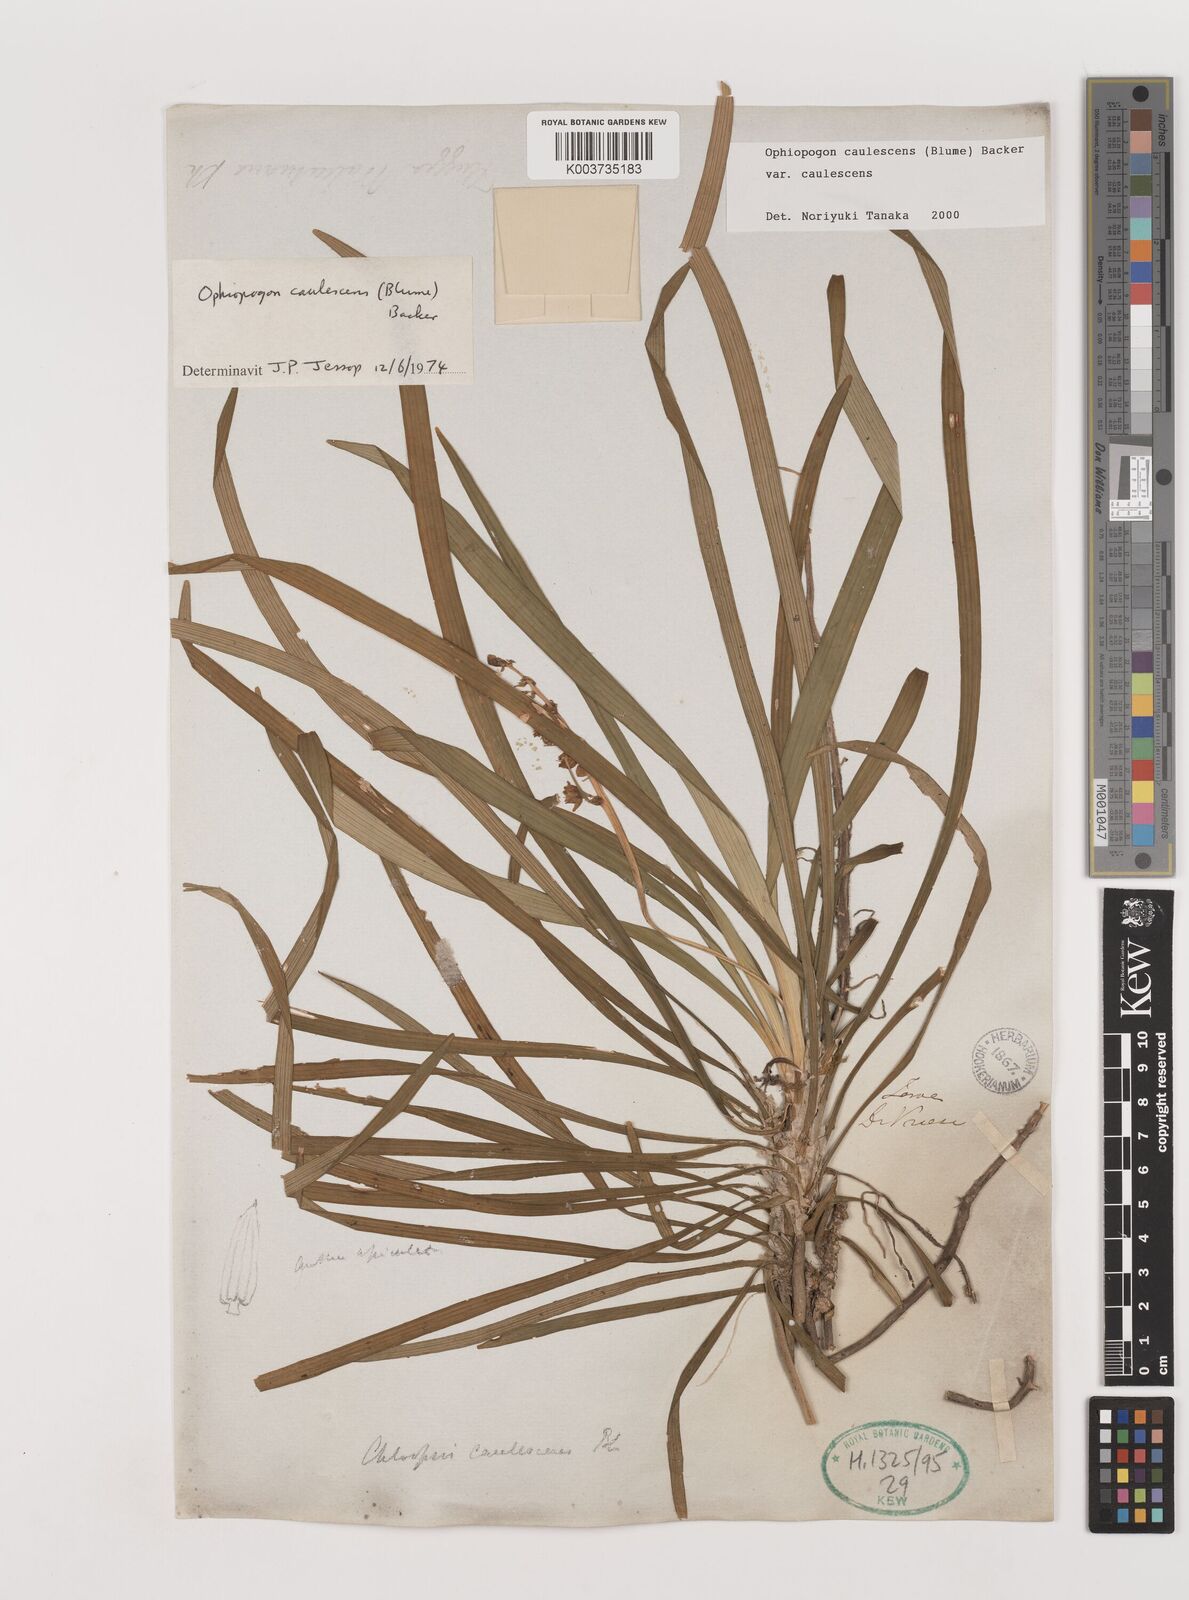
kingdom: Plantae
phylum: Tracheophyta
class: Liliopsida
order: Asparagales
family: Asparagaceae
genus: Ophiopogon
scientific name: Ophiopogon caulescens
